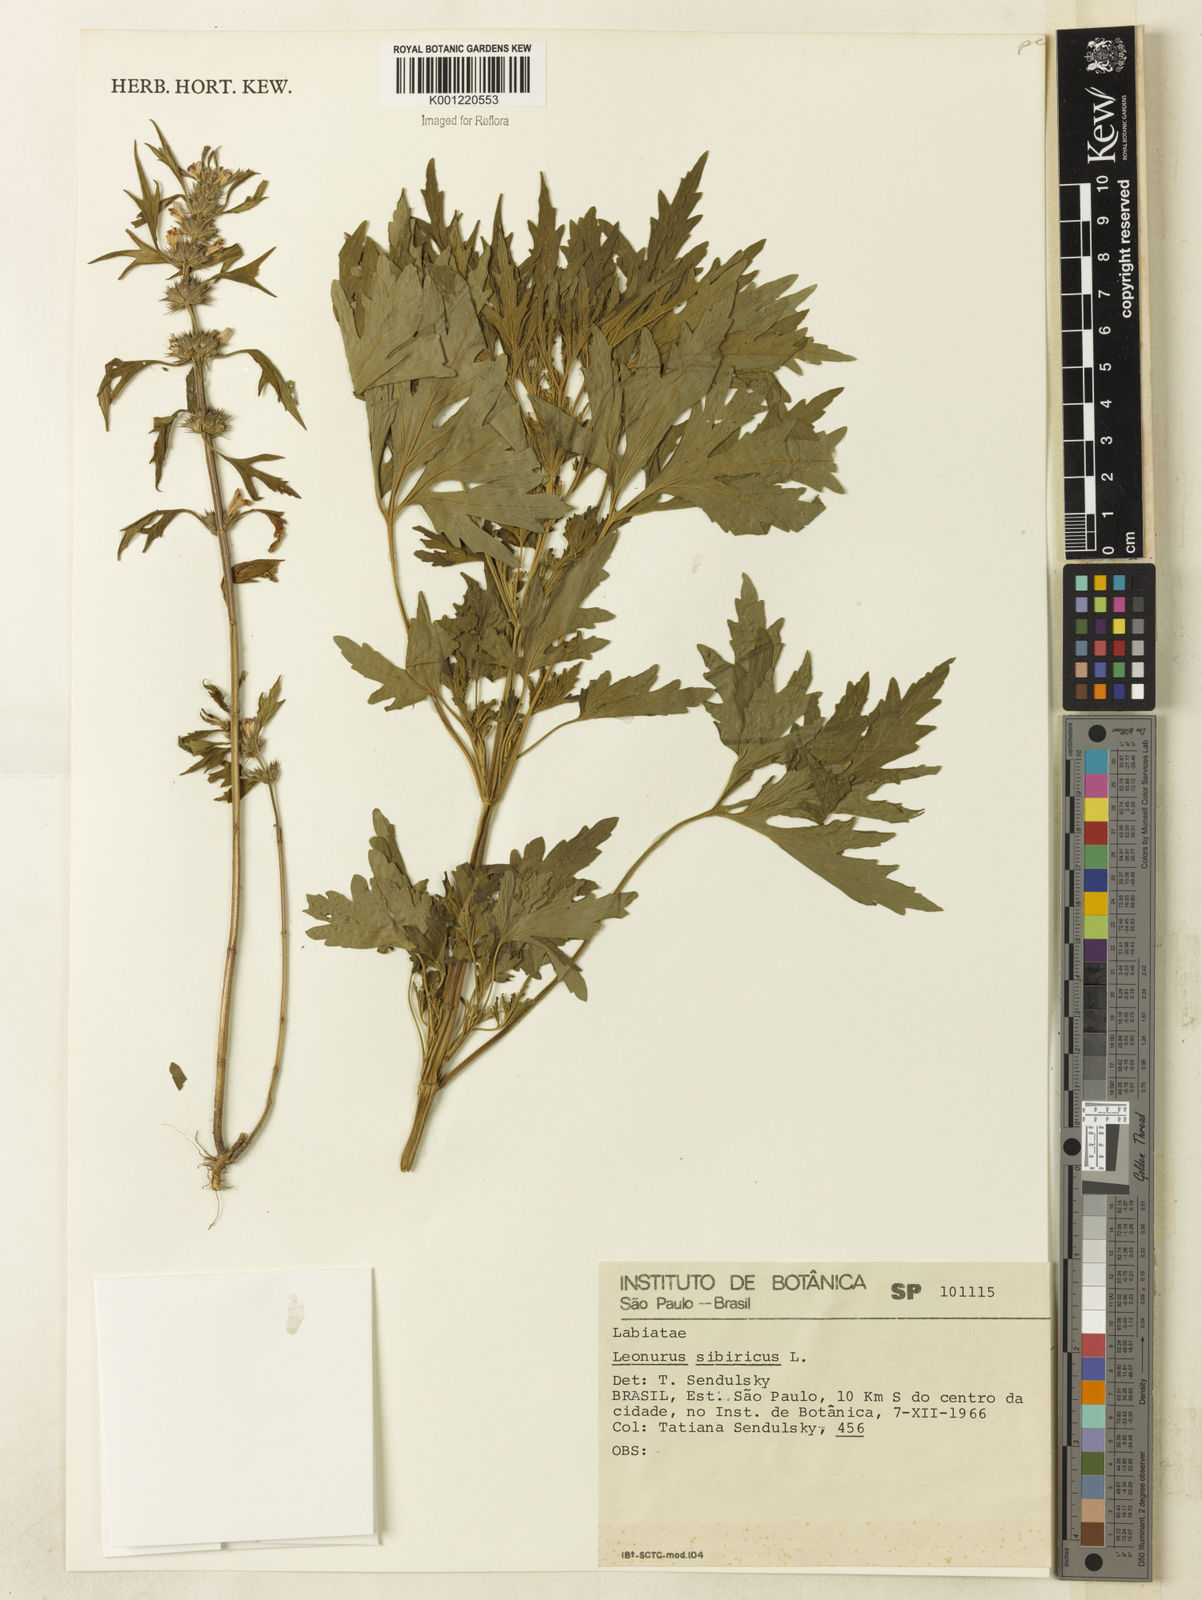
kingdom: Plantae
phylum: Tracheophyta
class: Magnoliopsida
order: Lamiales
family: Lamiaceae
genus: Leonurus
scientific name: Leonurus japonicus
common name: Honeyweed
